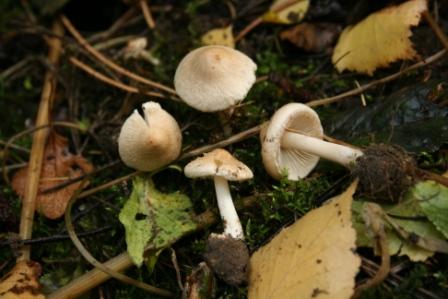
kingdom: Fungi
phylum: Basidiomycota
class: Agaricomycetes
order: Agaricales
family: Inocybaceae
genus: Inocybe
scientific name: Inocybe sindonia
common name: bleg trævlhat
